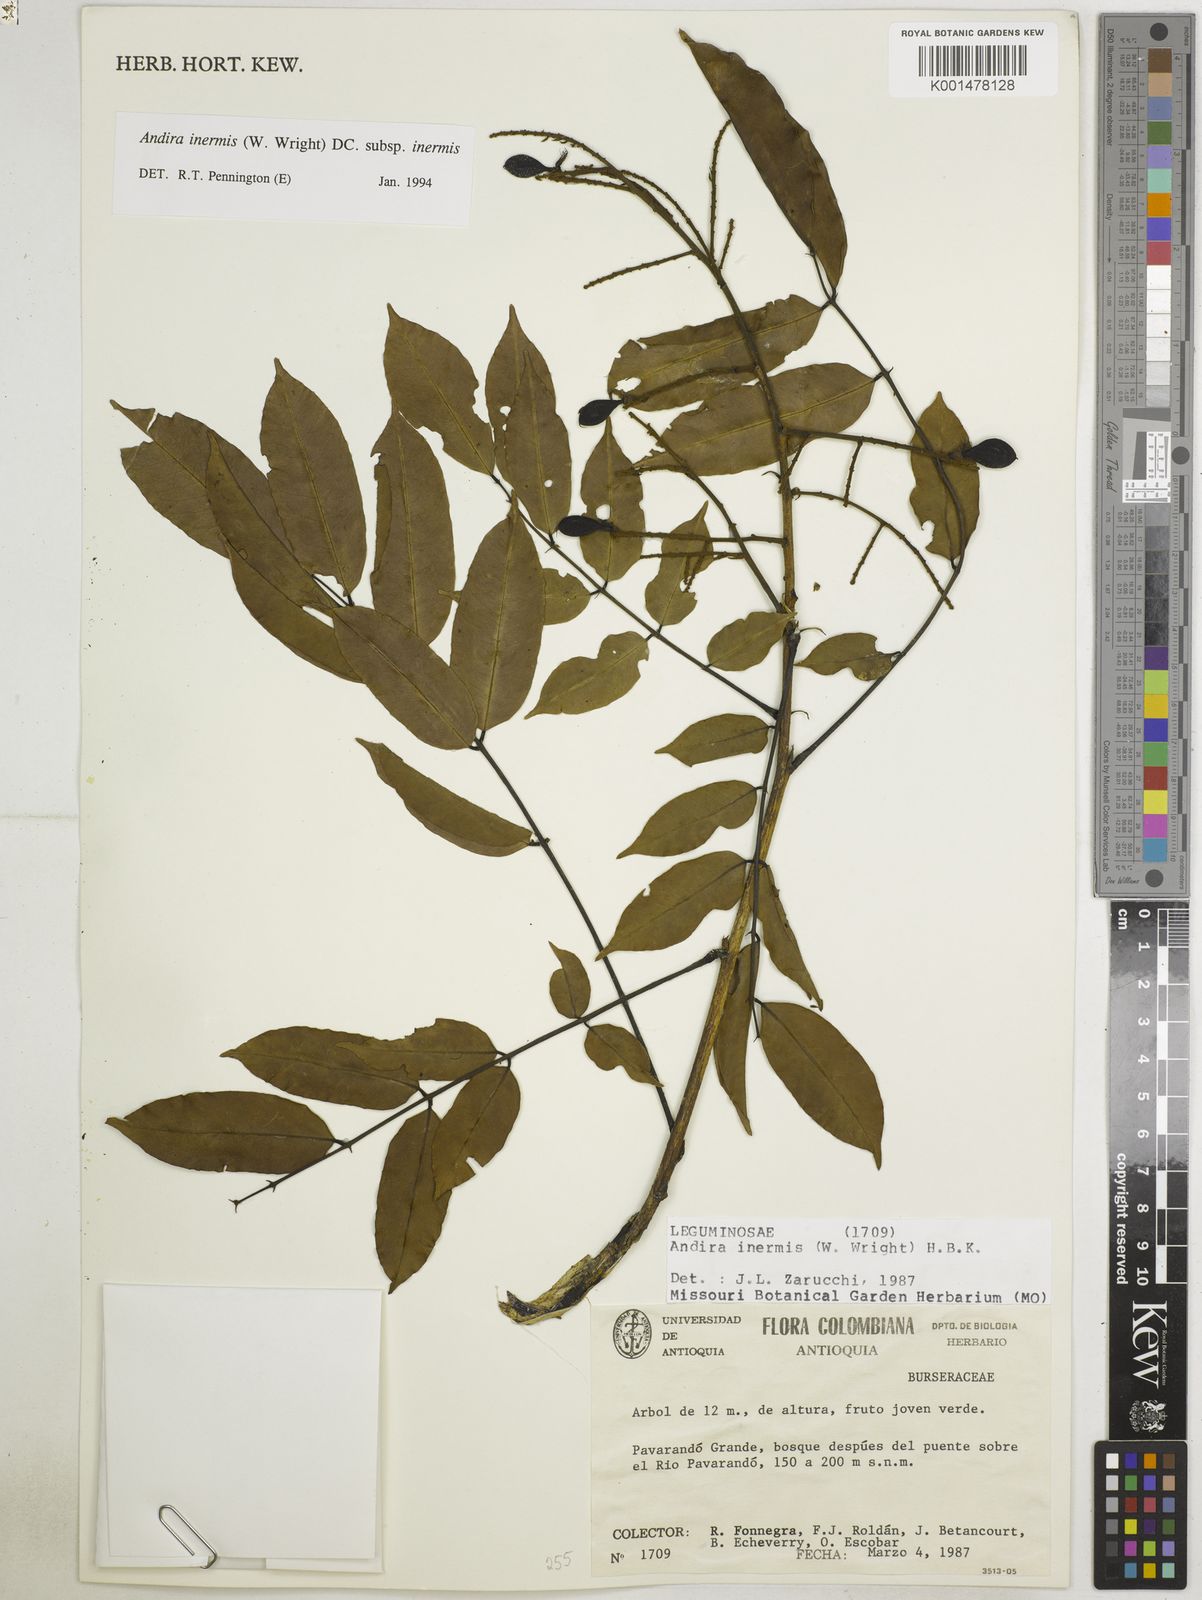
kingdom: Plantae
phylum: Tracheophyta
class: Magnoliopsida
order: Fabales
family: Fabaceae
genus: Andira
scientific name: Andira inermis
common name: Angelin
